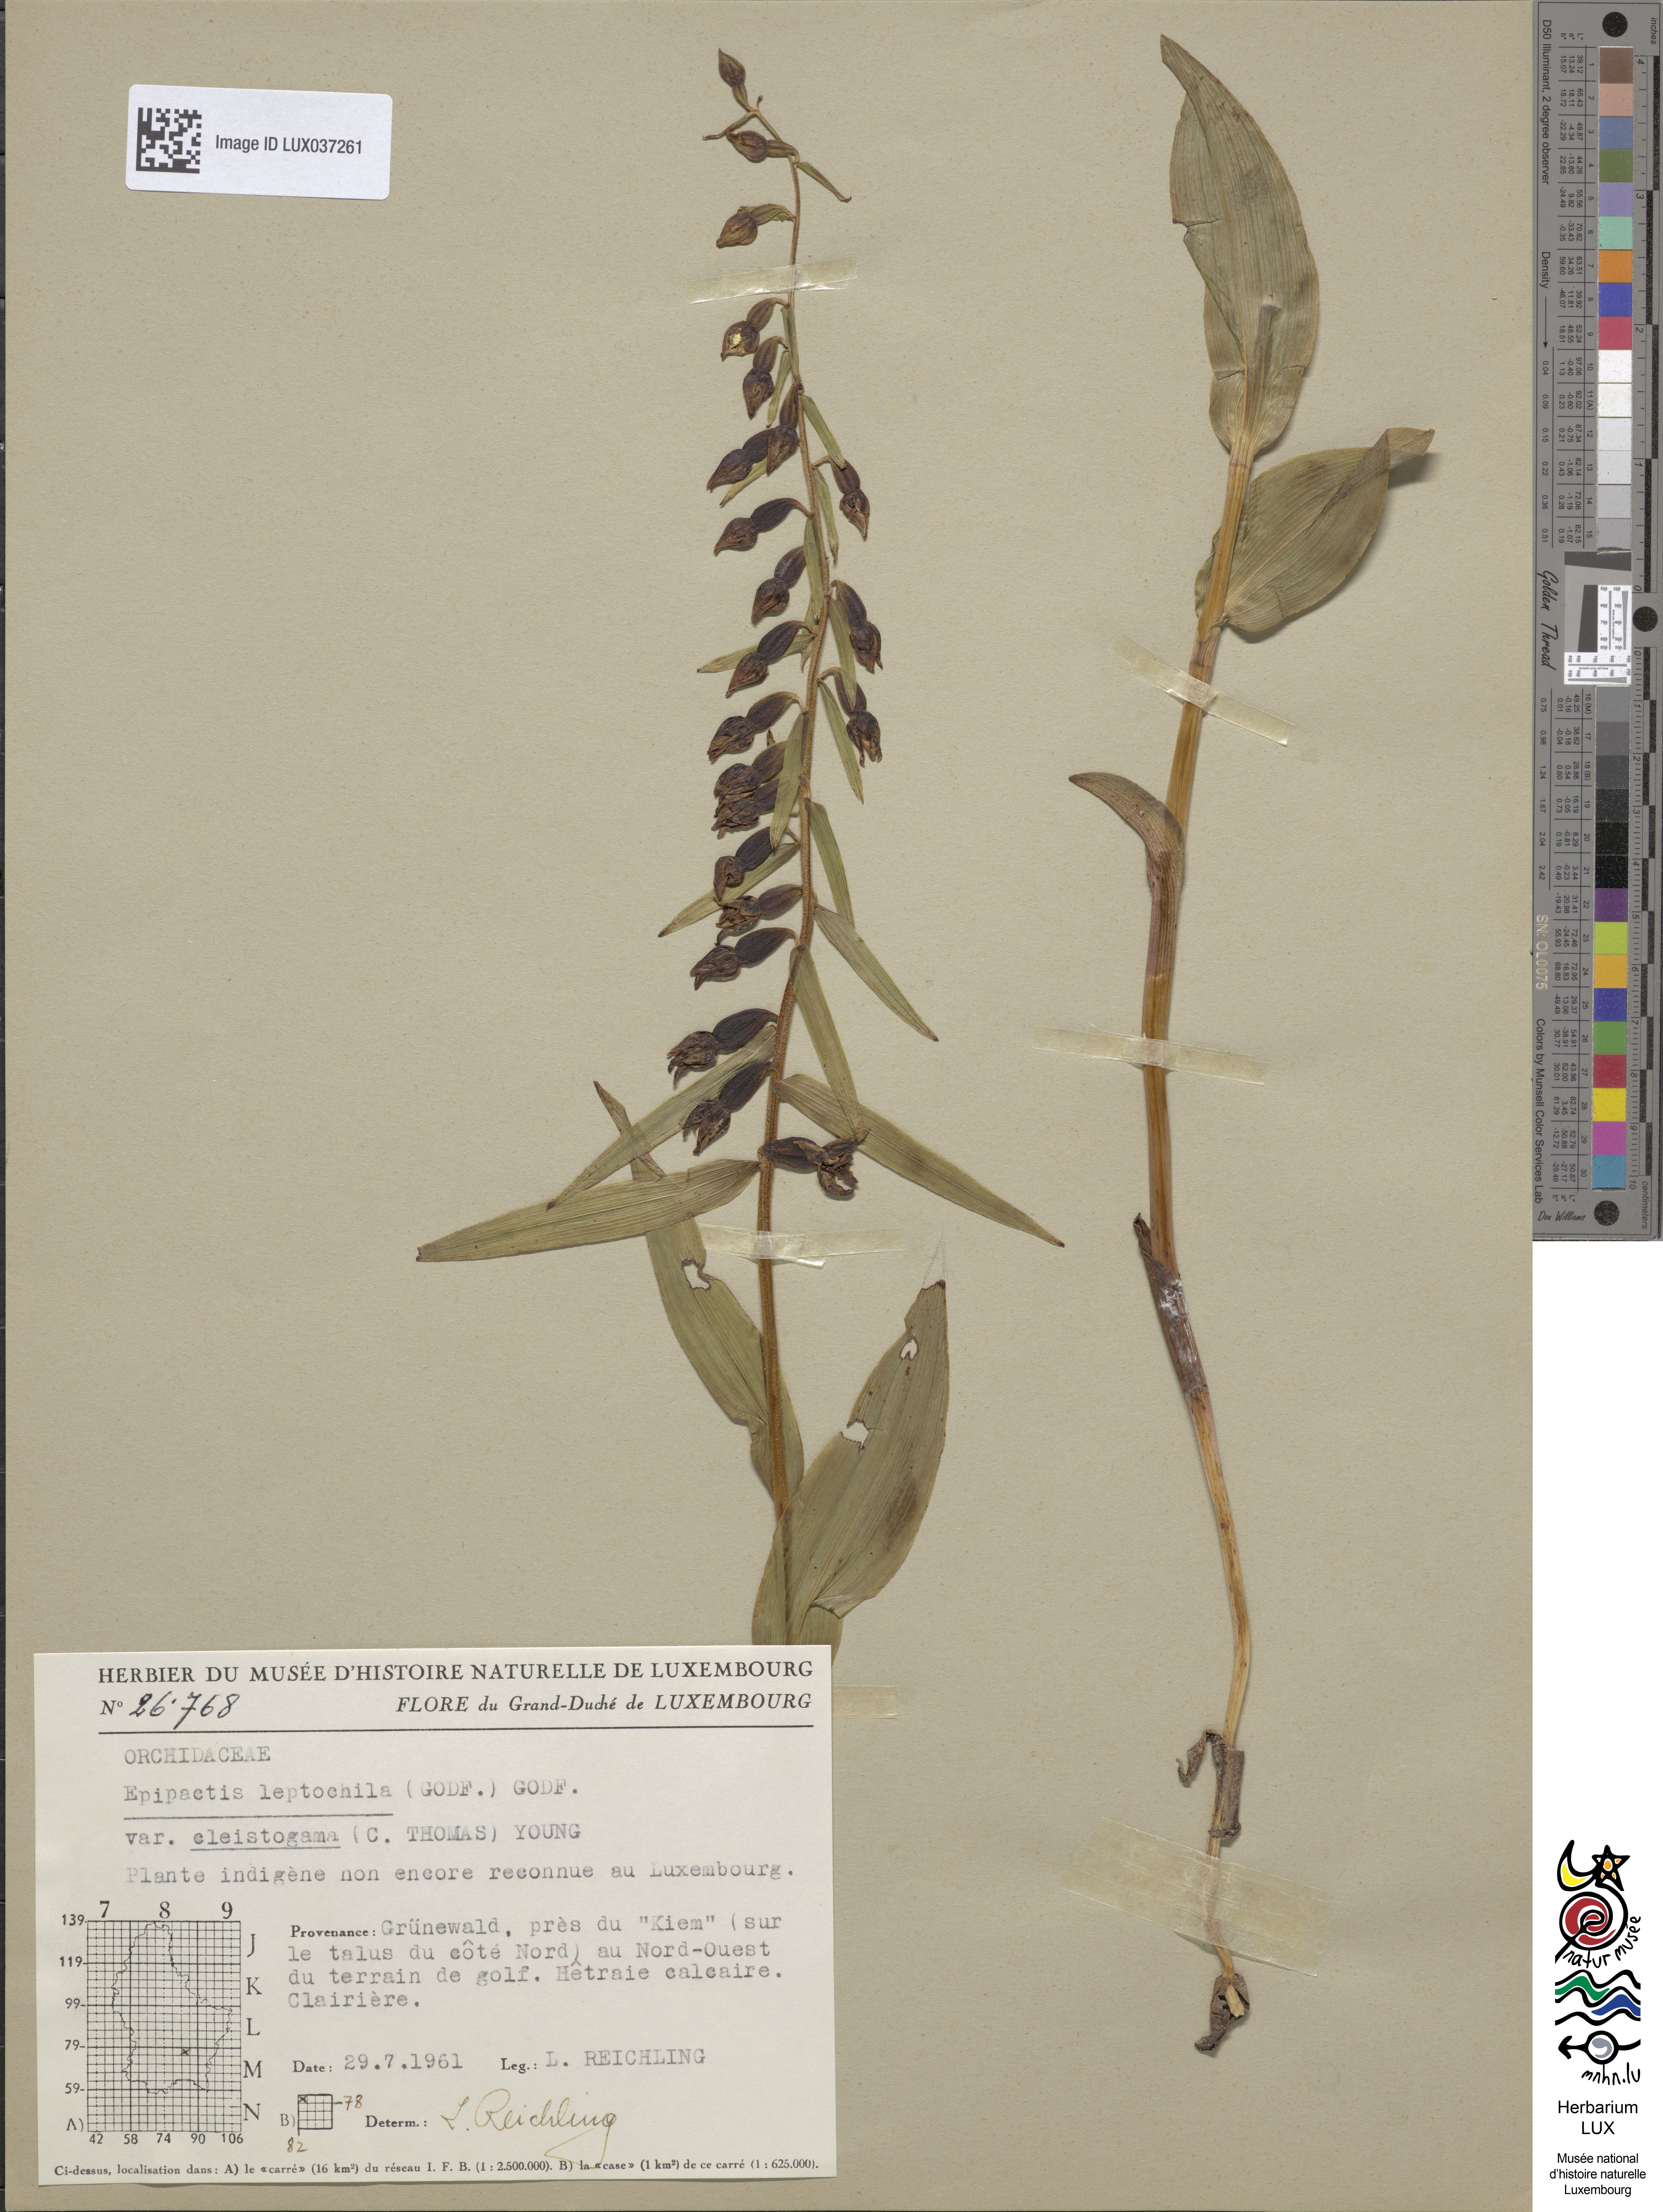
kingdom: Plantae
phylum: Tracheophyta
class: Liliopsida
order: Asparagales
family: Orchidaceae
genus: Epipactis
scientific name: Epipactis leptochila
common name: Narrow-lipped helleborine
